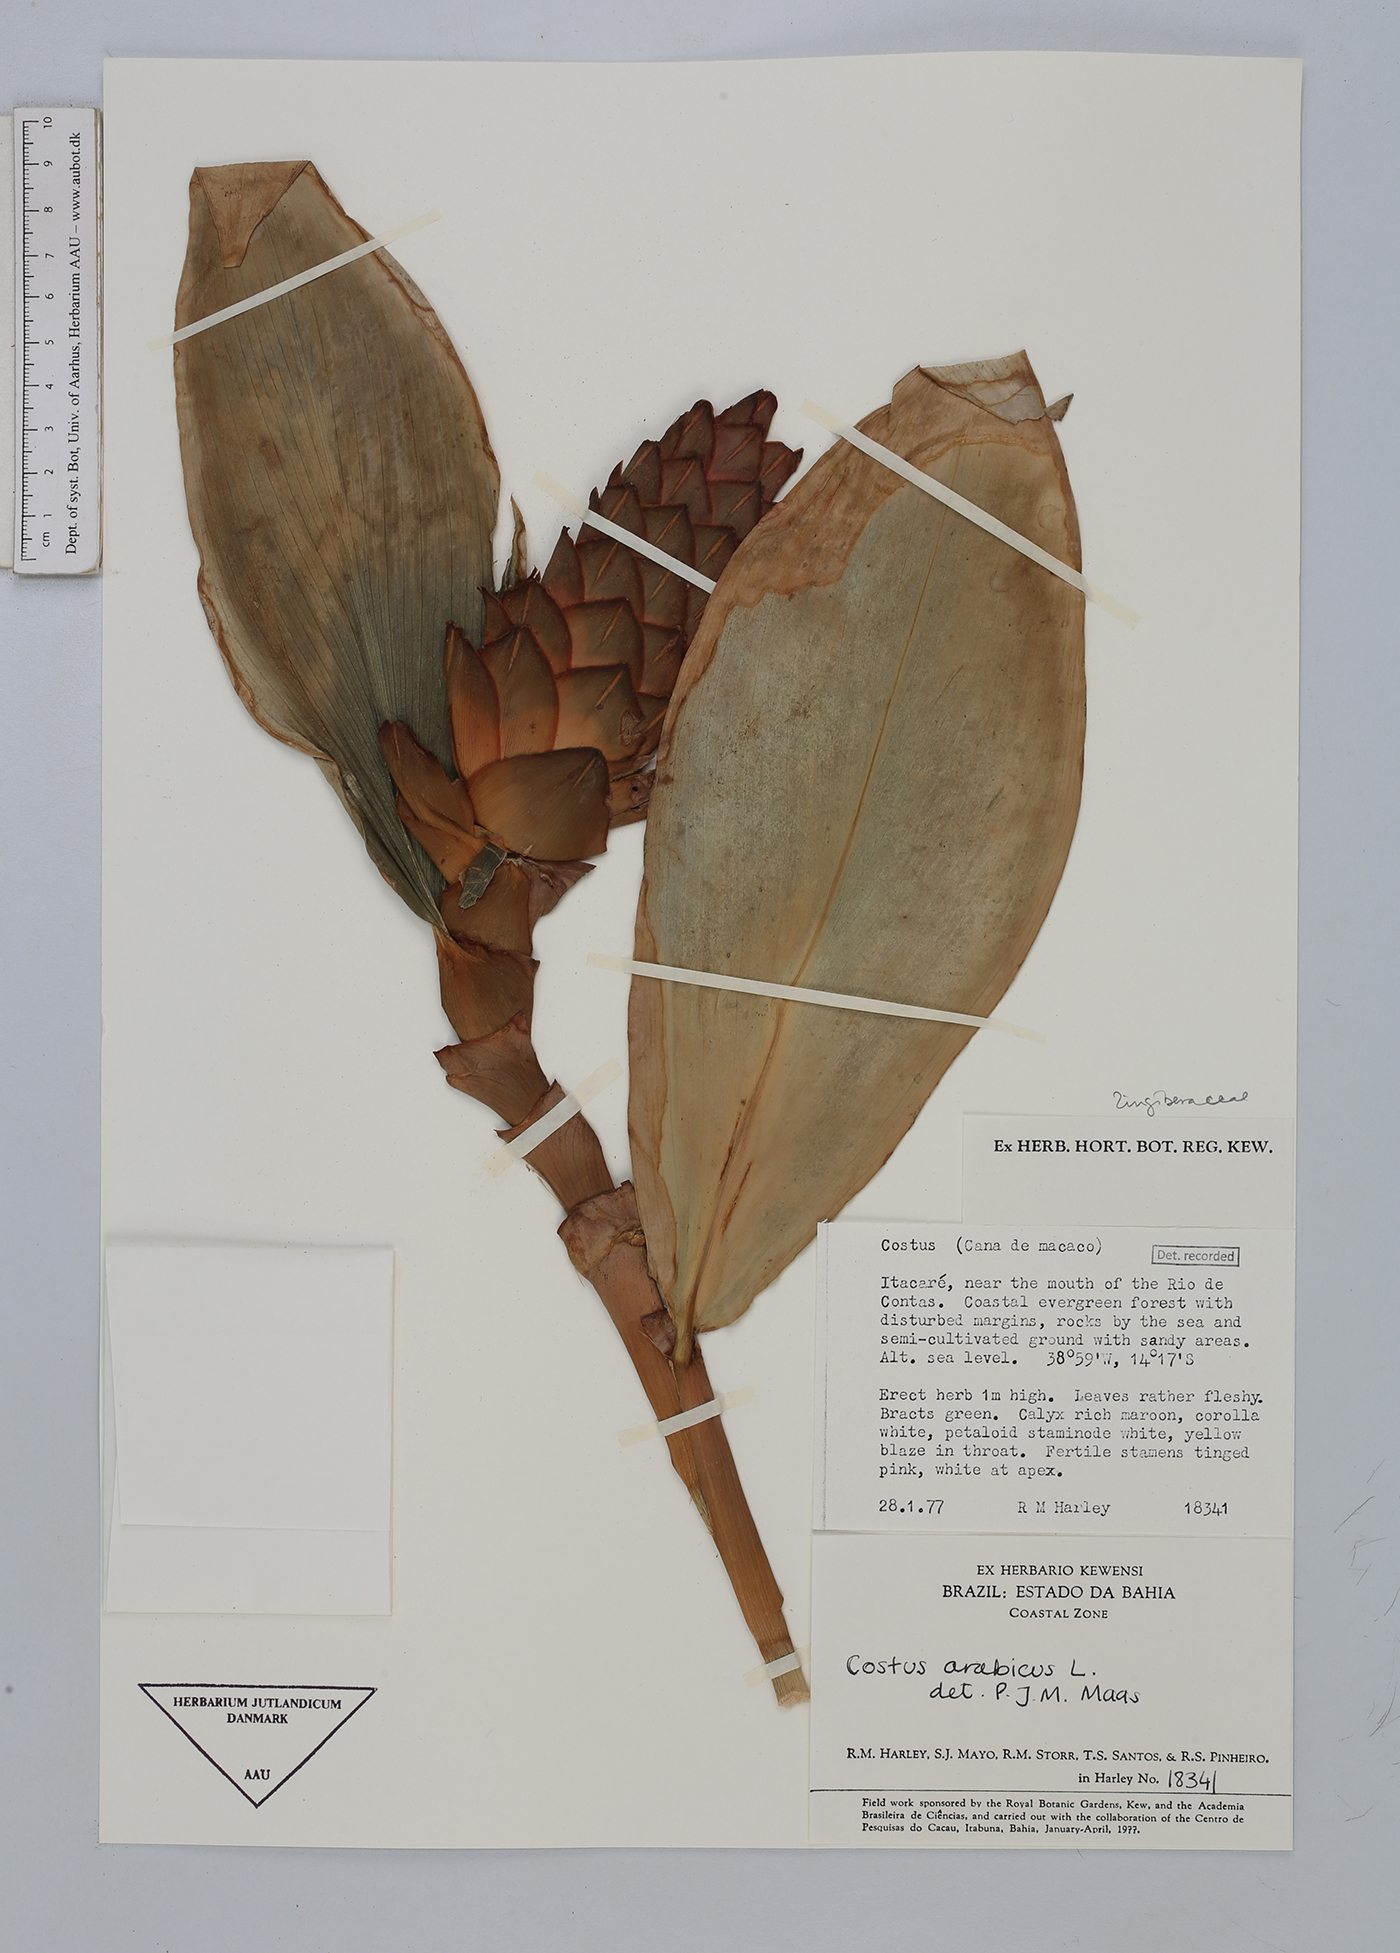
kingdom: Plantae
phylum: Tracheophyta
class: Liliopsida
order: Zingiberales
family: Costaceae
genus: Costus
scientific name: Costus arabicus
